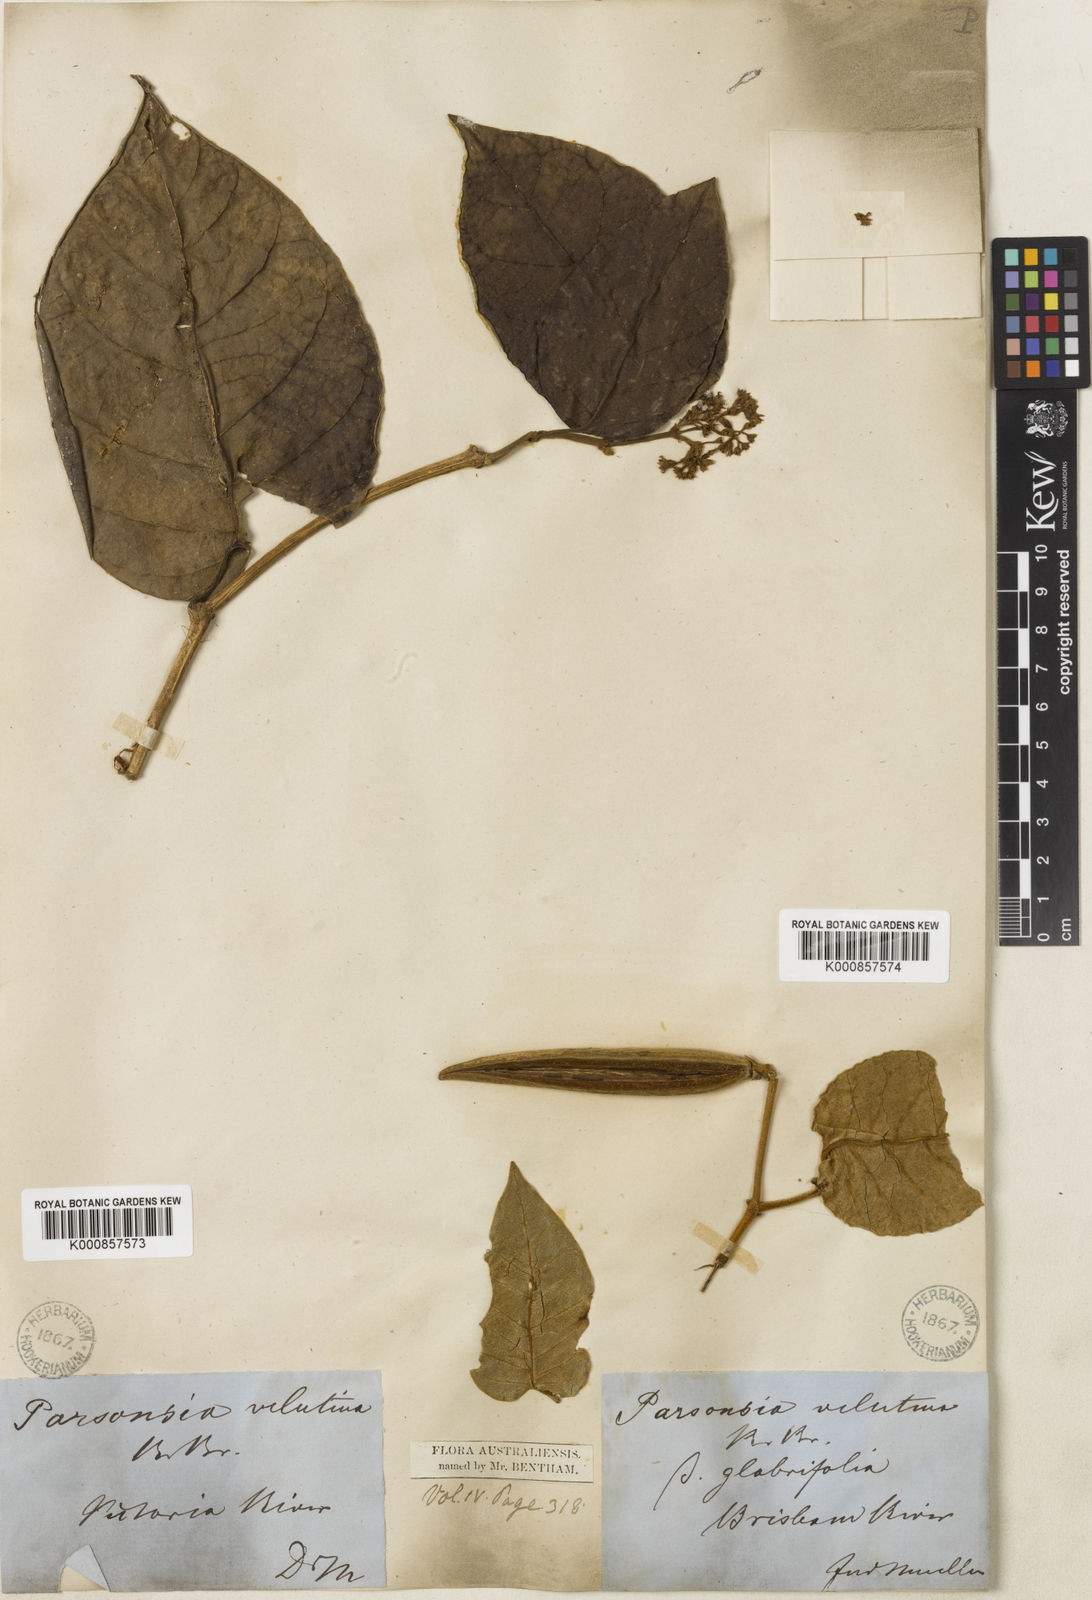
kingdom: Plantae
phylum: Tracheophyta
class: Magnoliopsida
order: Gentianales
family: Apocynaceae
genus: Parsonsia
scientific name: Parsonsia velutina
